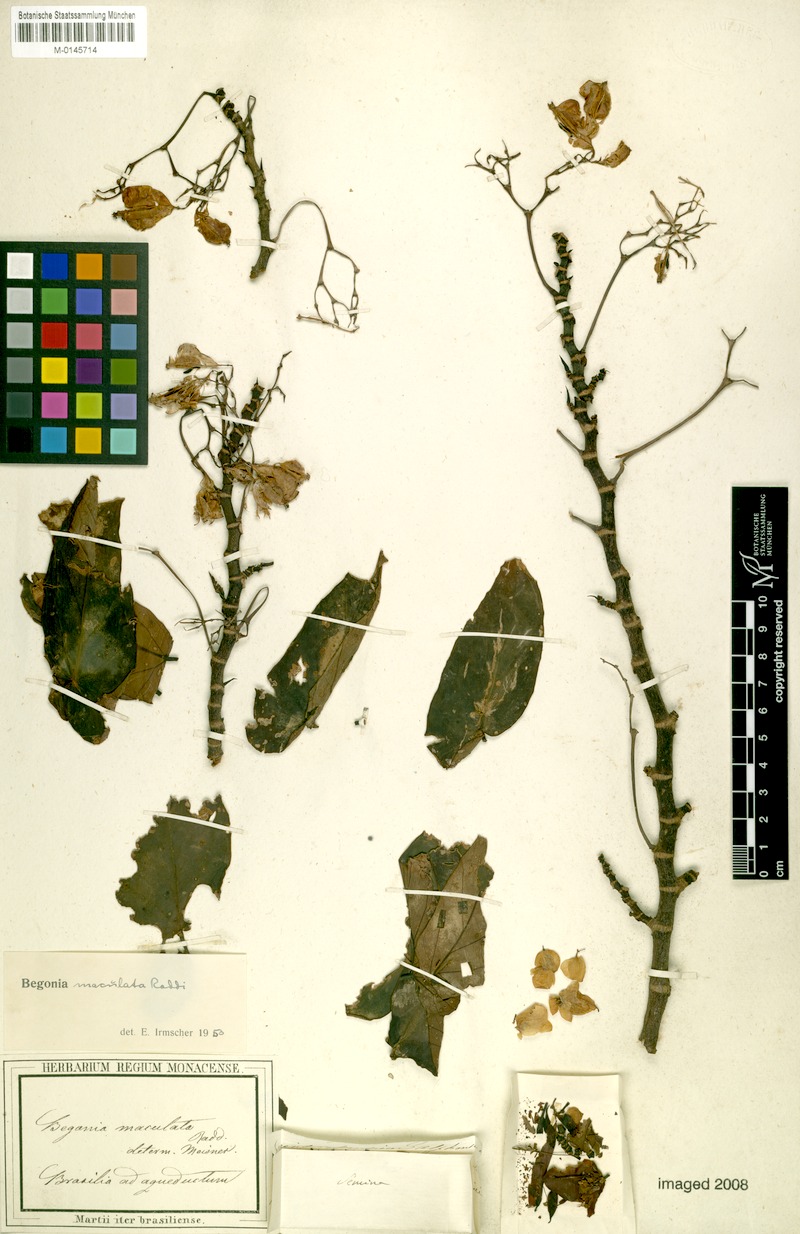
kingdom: Plantae
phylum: Tracheophyta
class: Magnoliopsida
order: Cucurbitales
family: Begoniaceae
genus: Begonia
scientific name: Begonia maculata
